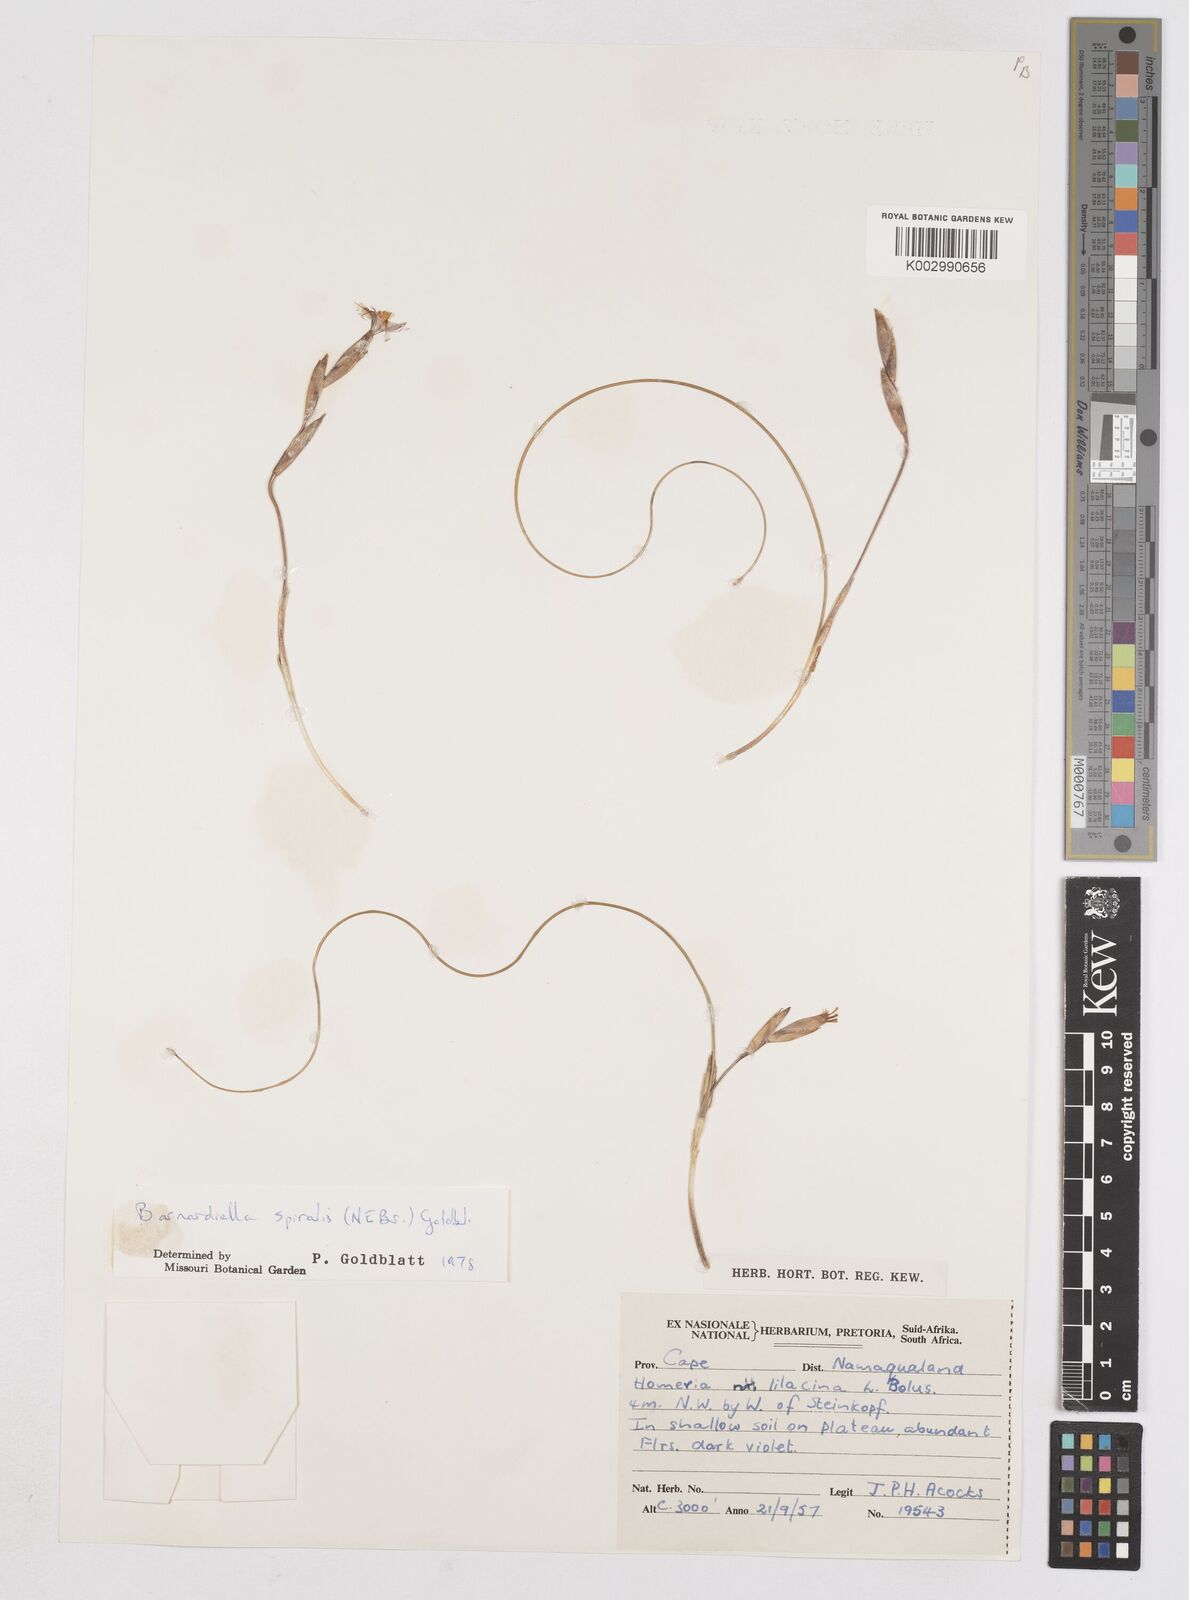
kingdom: Plantae
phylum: Tracheophyta
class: Liliopsida
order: Asparagales
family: Iridaceae
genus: Moraea
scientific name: Moraea herrei
